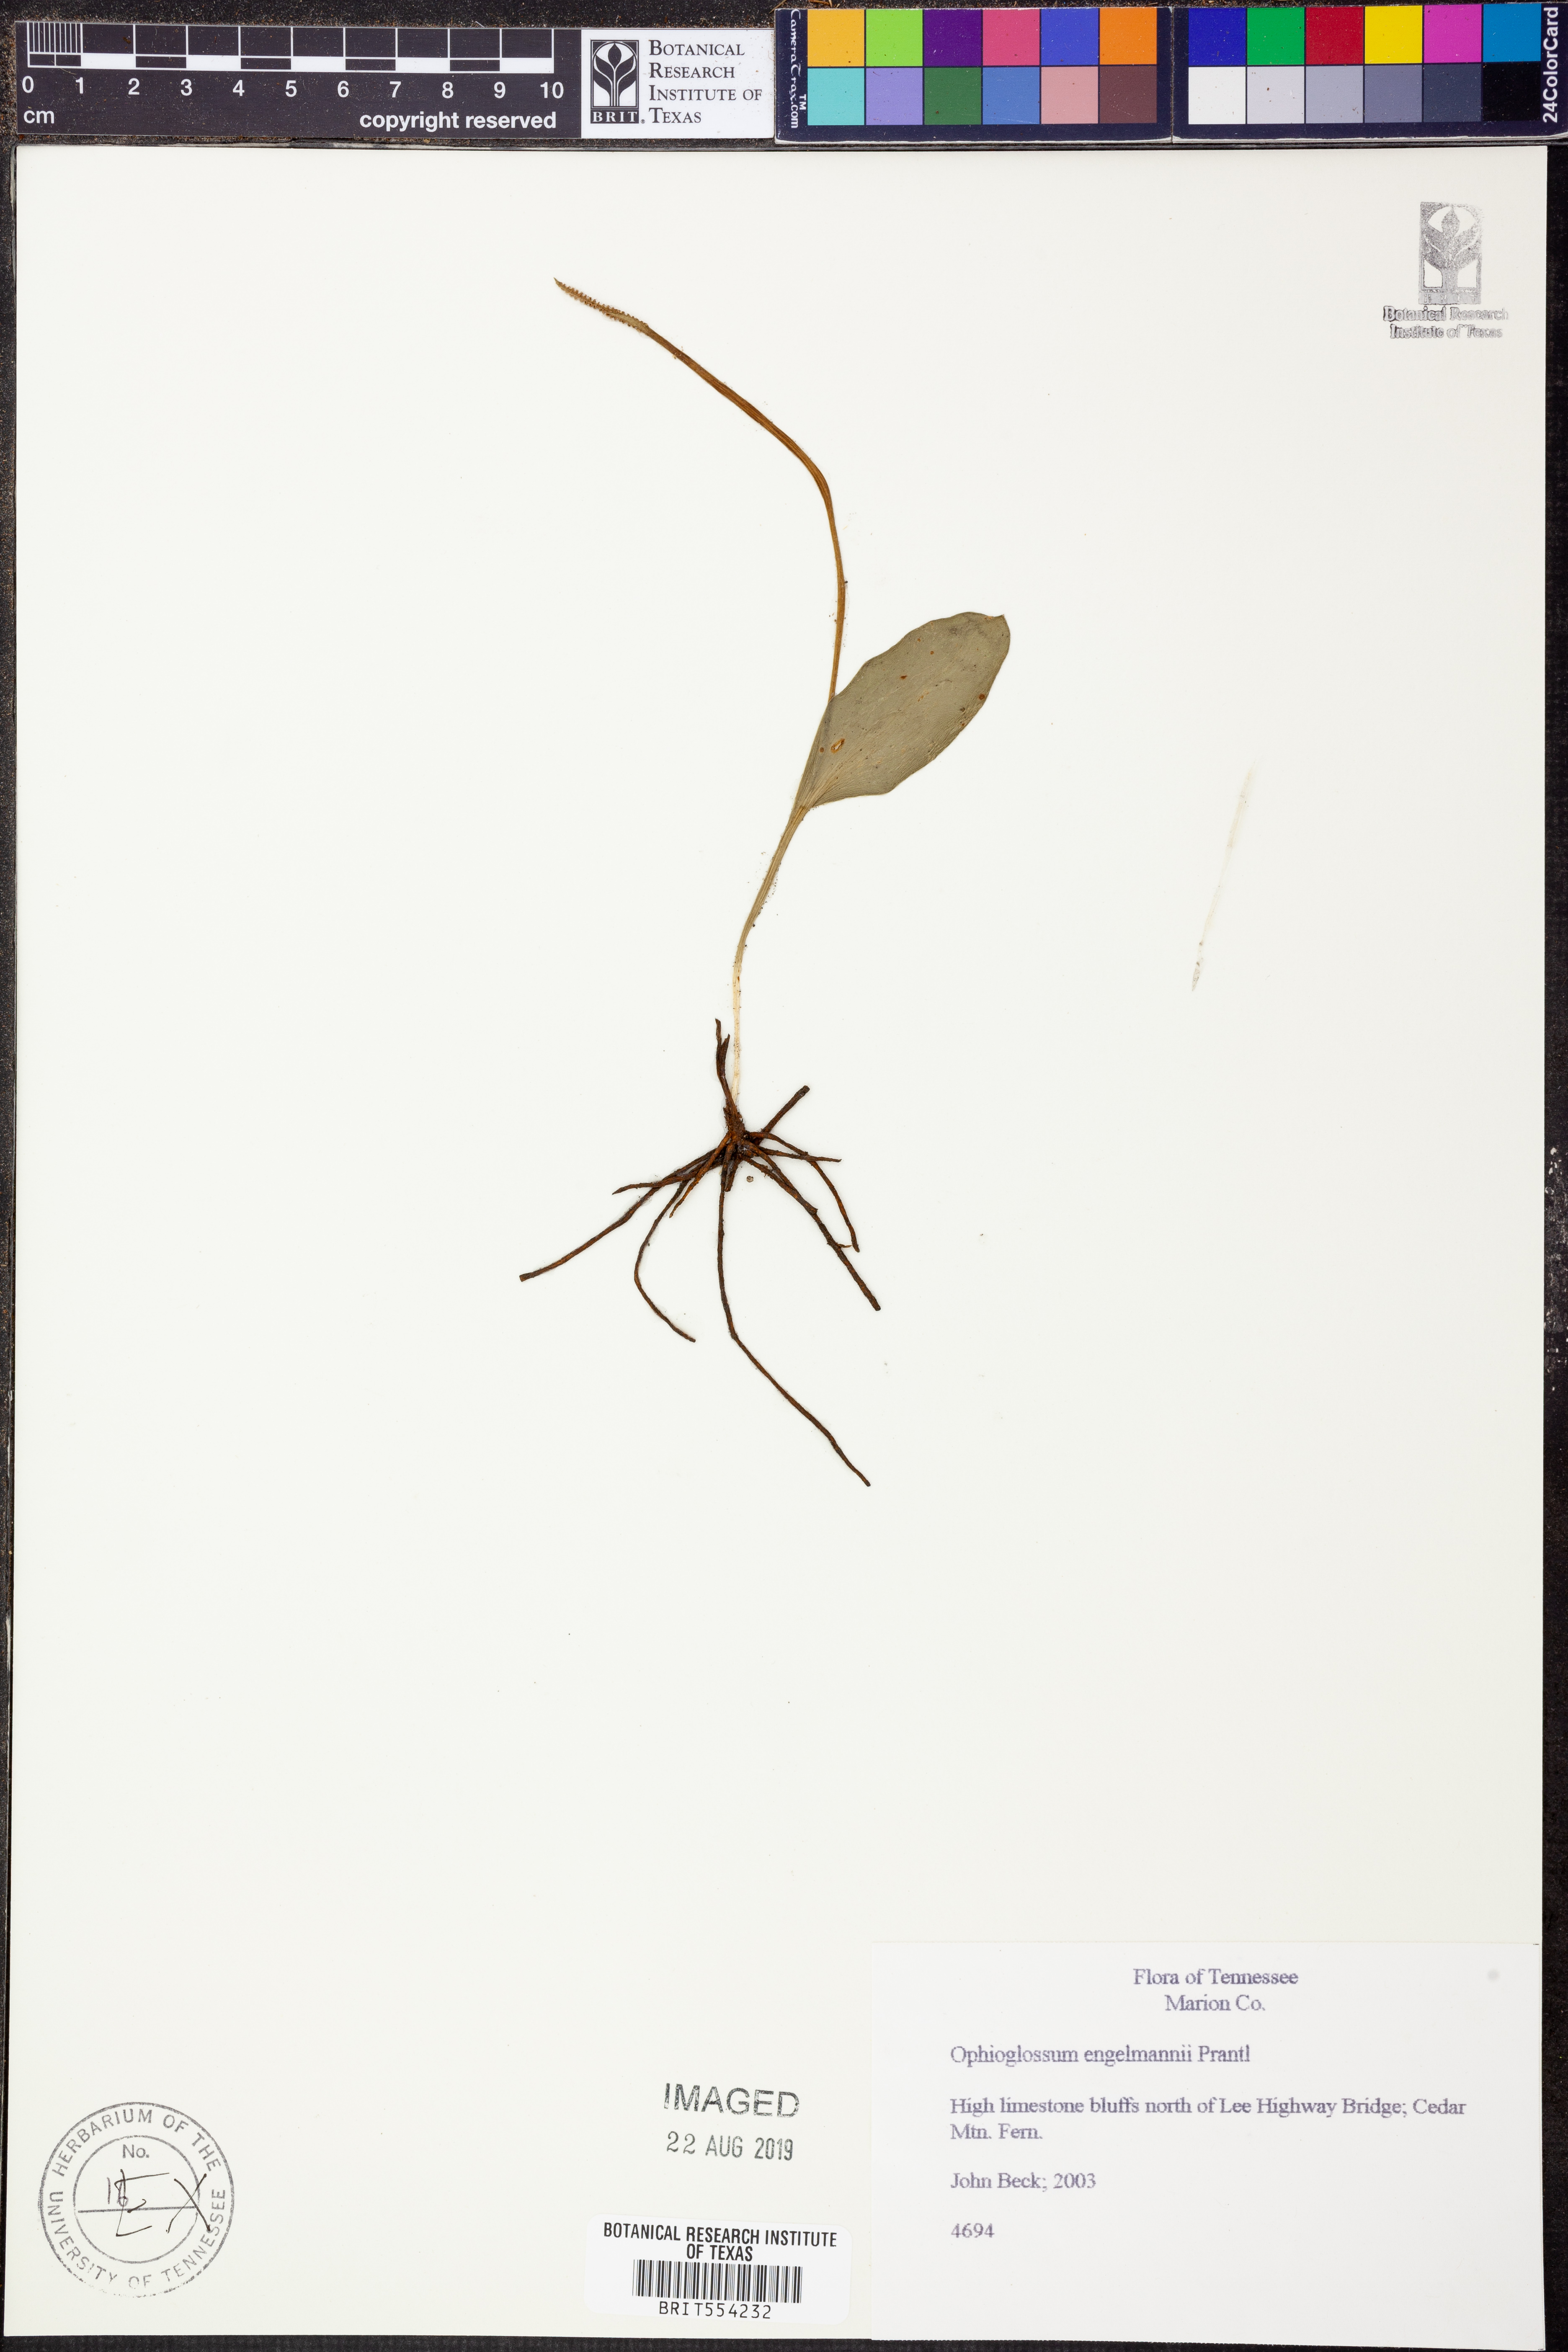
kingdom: Plantae
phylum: Tracheophyta
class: Polypodiopsida
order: Ophioglossales
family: Ophioglossaceae
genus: Ophioglossum
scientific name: Ophioglossum engelmannii
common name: Limestone adder's-tongue
